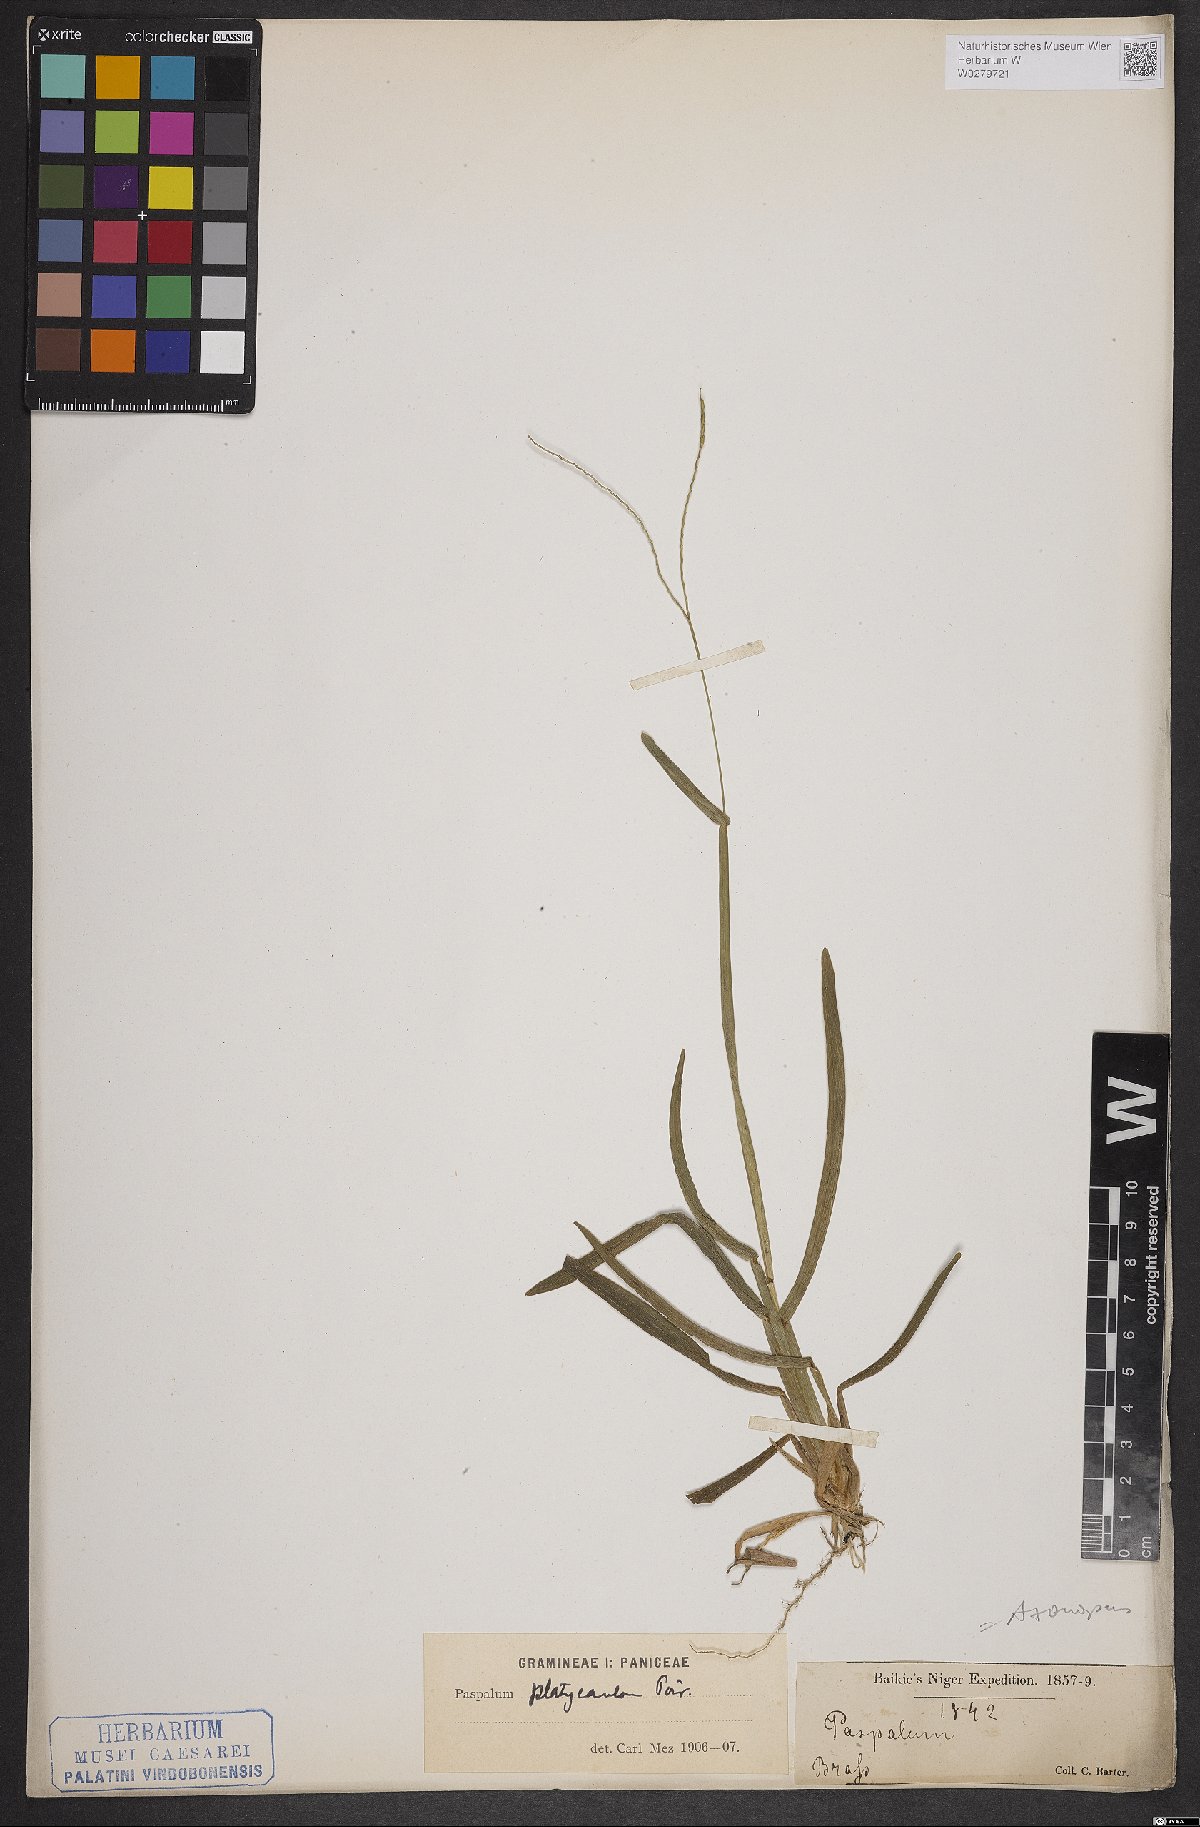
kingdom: Plantae
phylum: Tracheophyta
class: Liliopsida
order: Poales
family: Poaceae
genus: Axonopus
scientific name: Axonopus compressus
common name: American carpet grass
